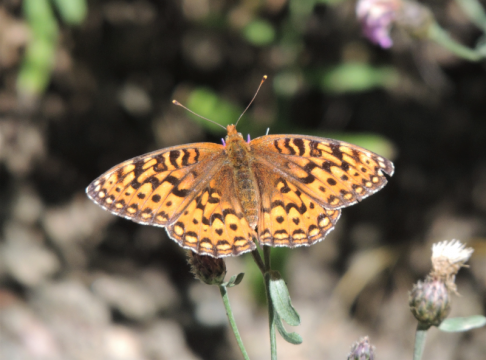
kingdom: Animalia
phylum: Arthropoda
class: Insecta
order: Lepidoptera
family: Nymphalidae
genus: Speyeria
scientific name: Speyeria coronis
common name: Coronis Fritillary
